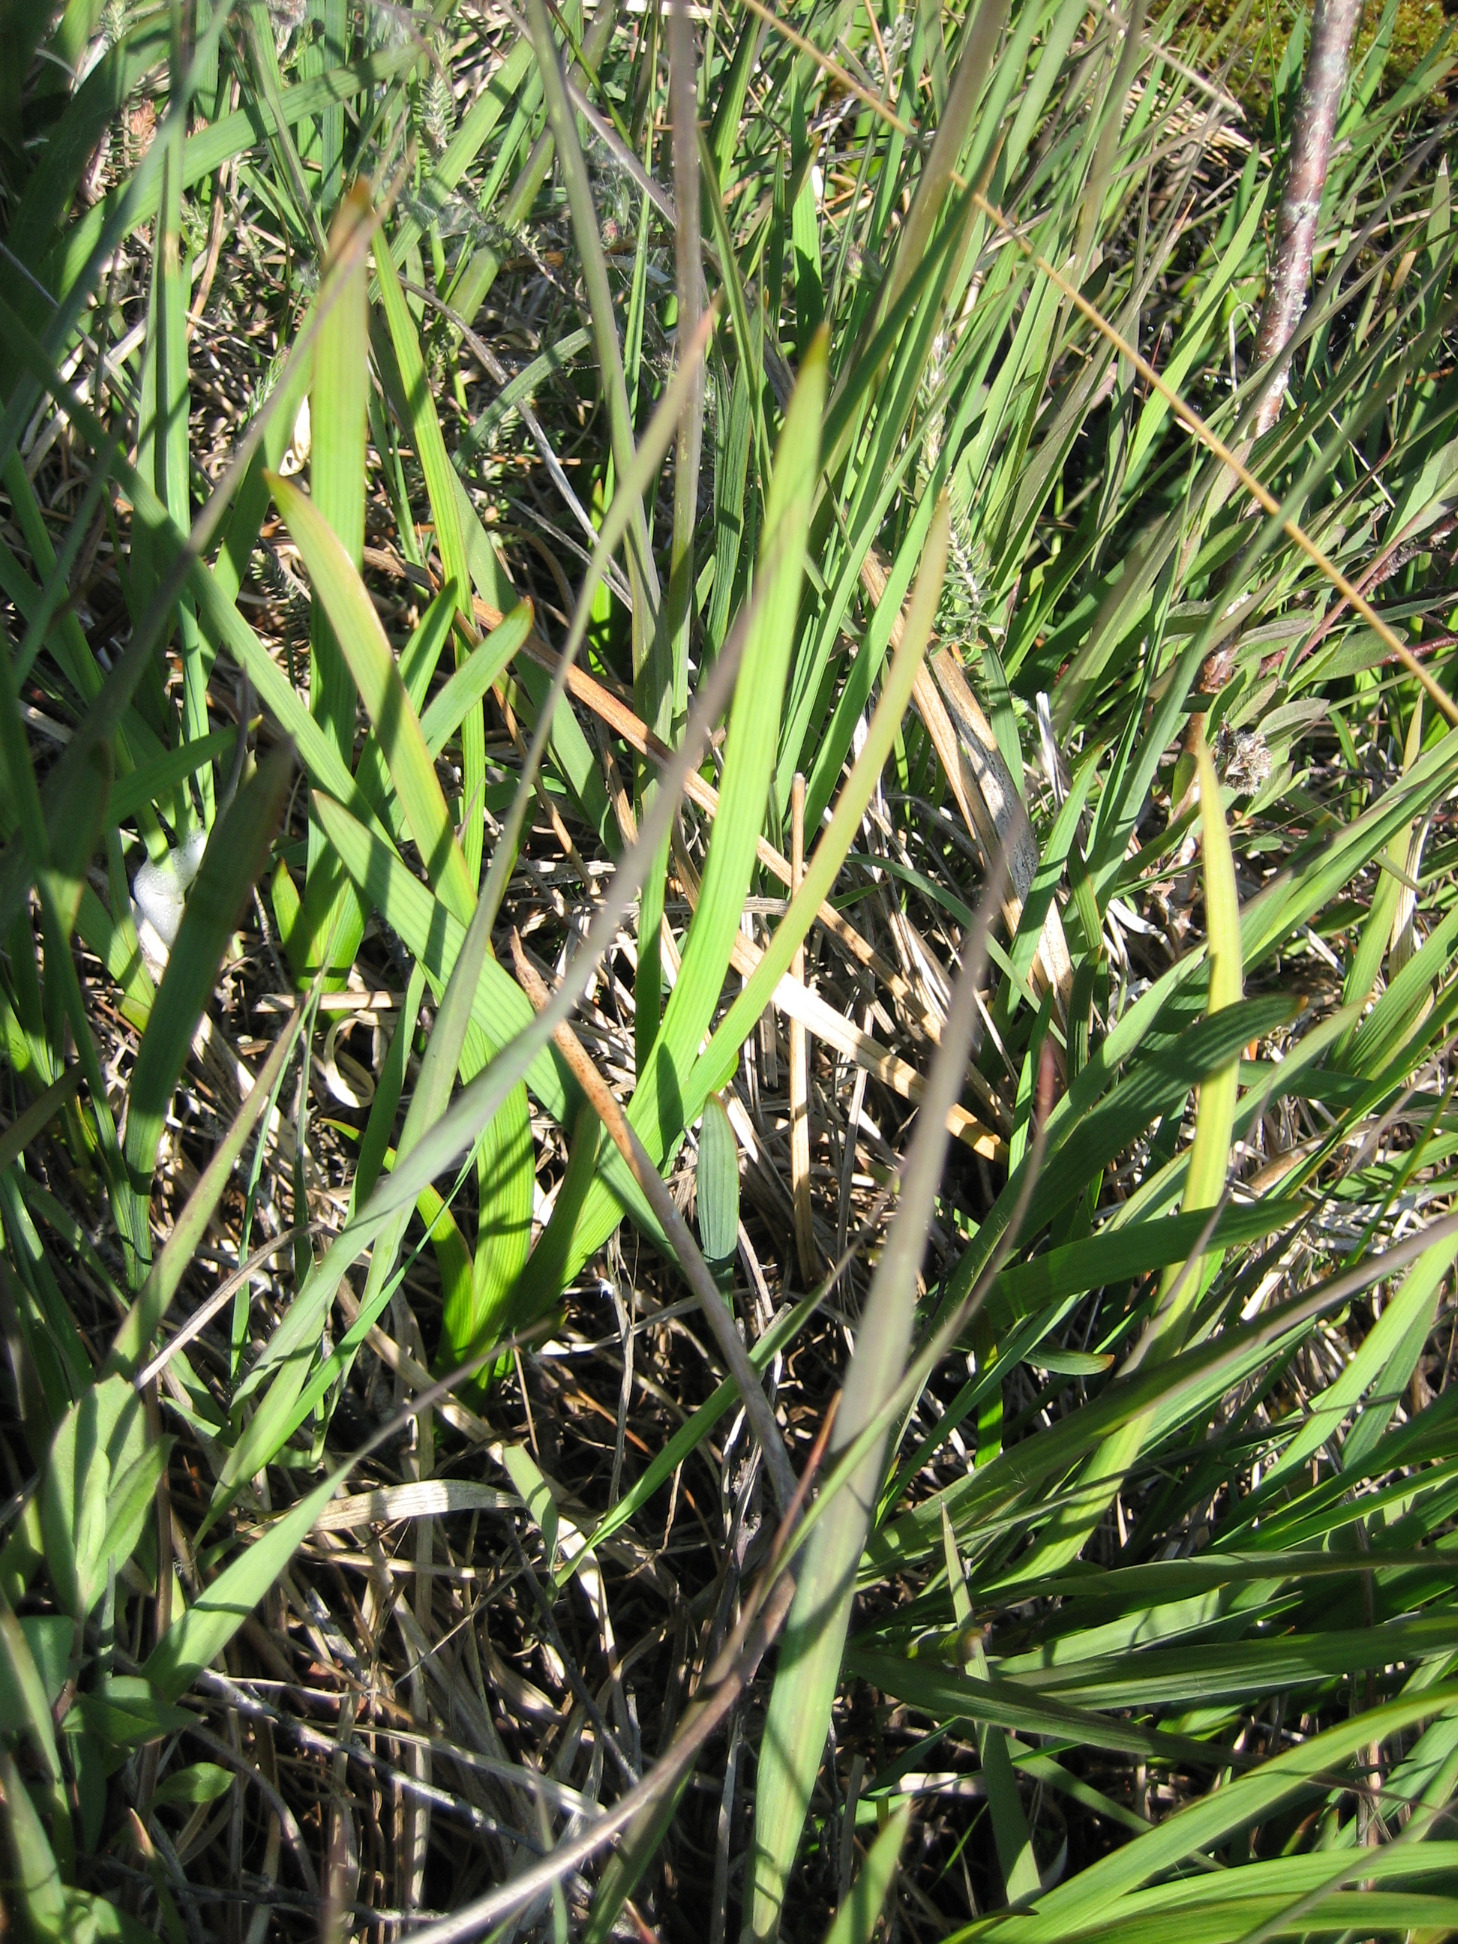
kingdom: Plantae
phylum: Tracheophyta
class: Liliopsida
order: Dioscoreales
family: Nartheciaceae
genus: Narthecium
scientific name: Narthecium ossifragum
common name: Benbræk
